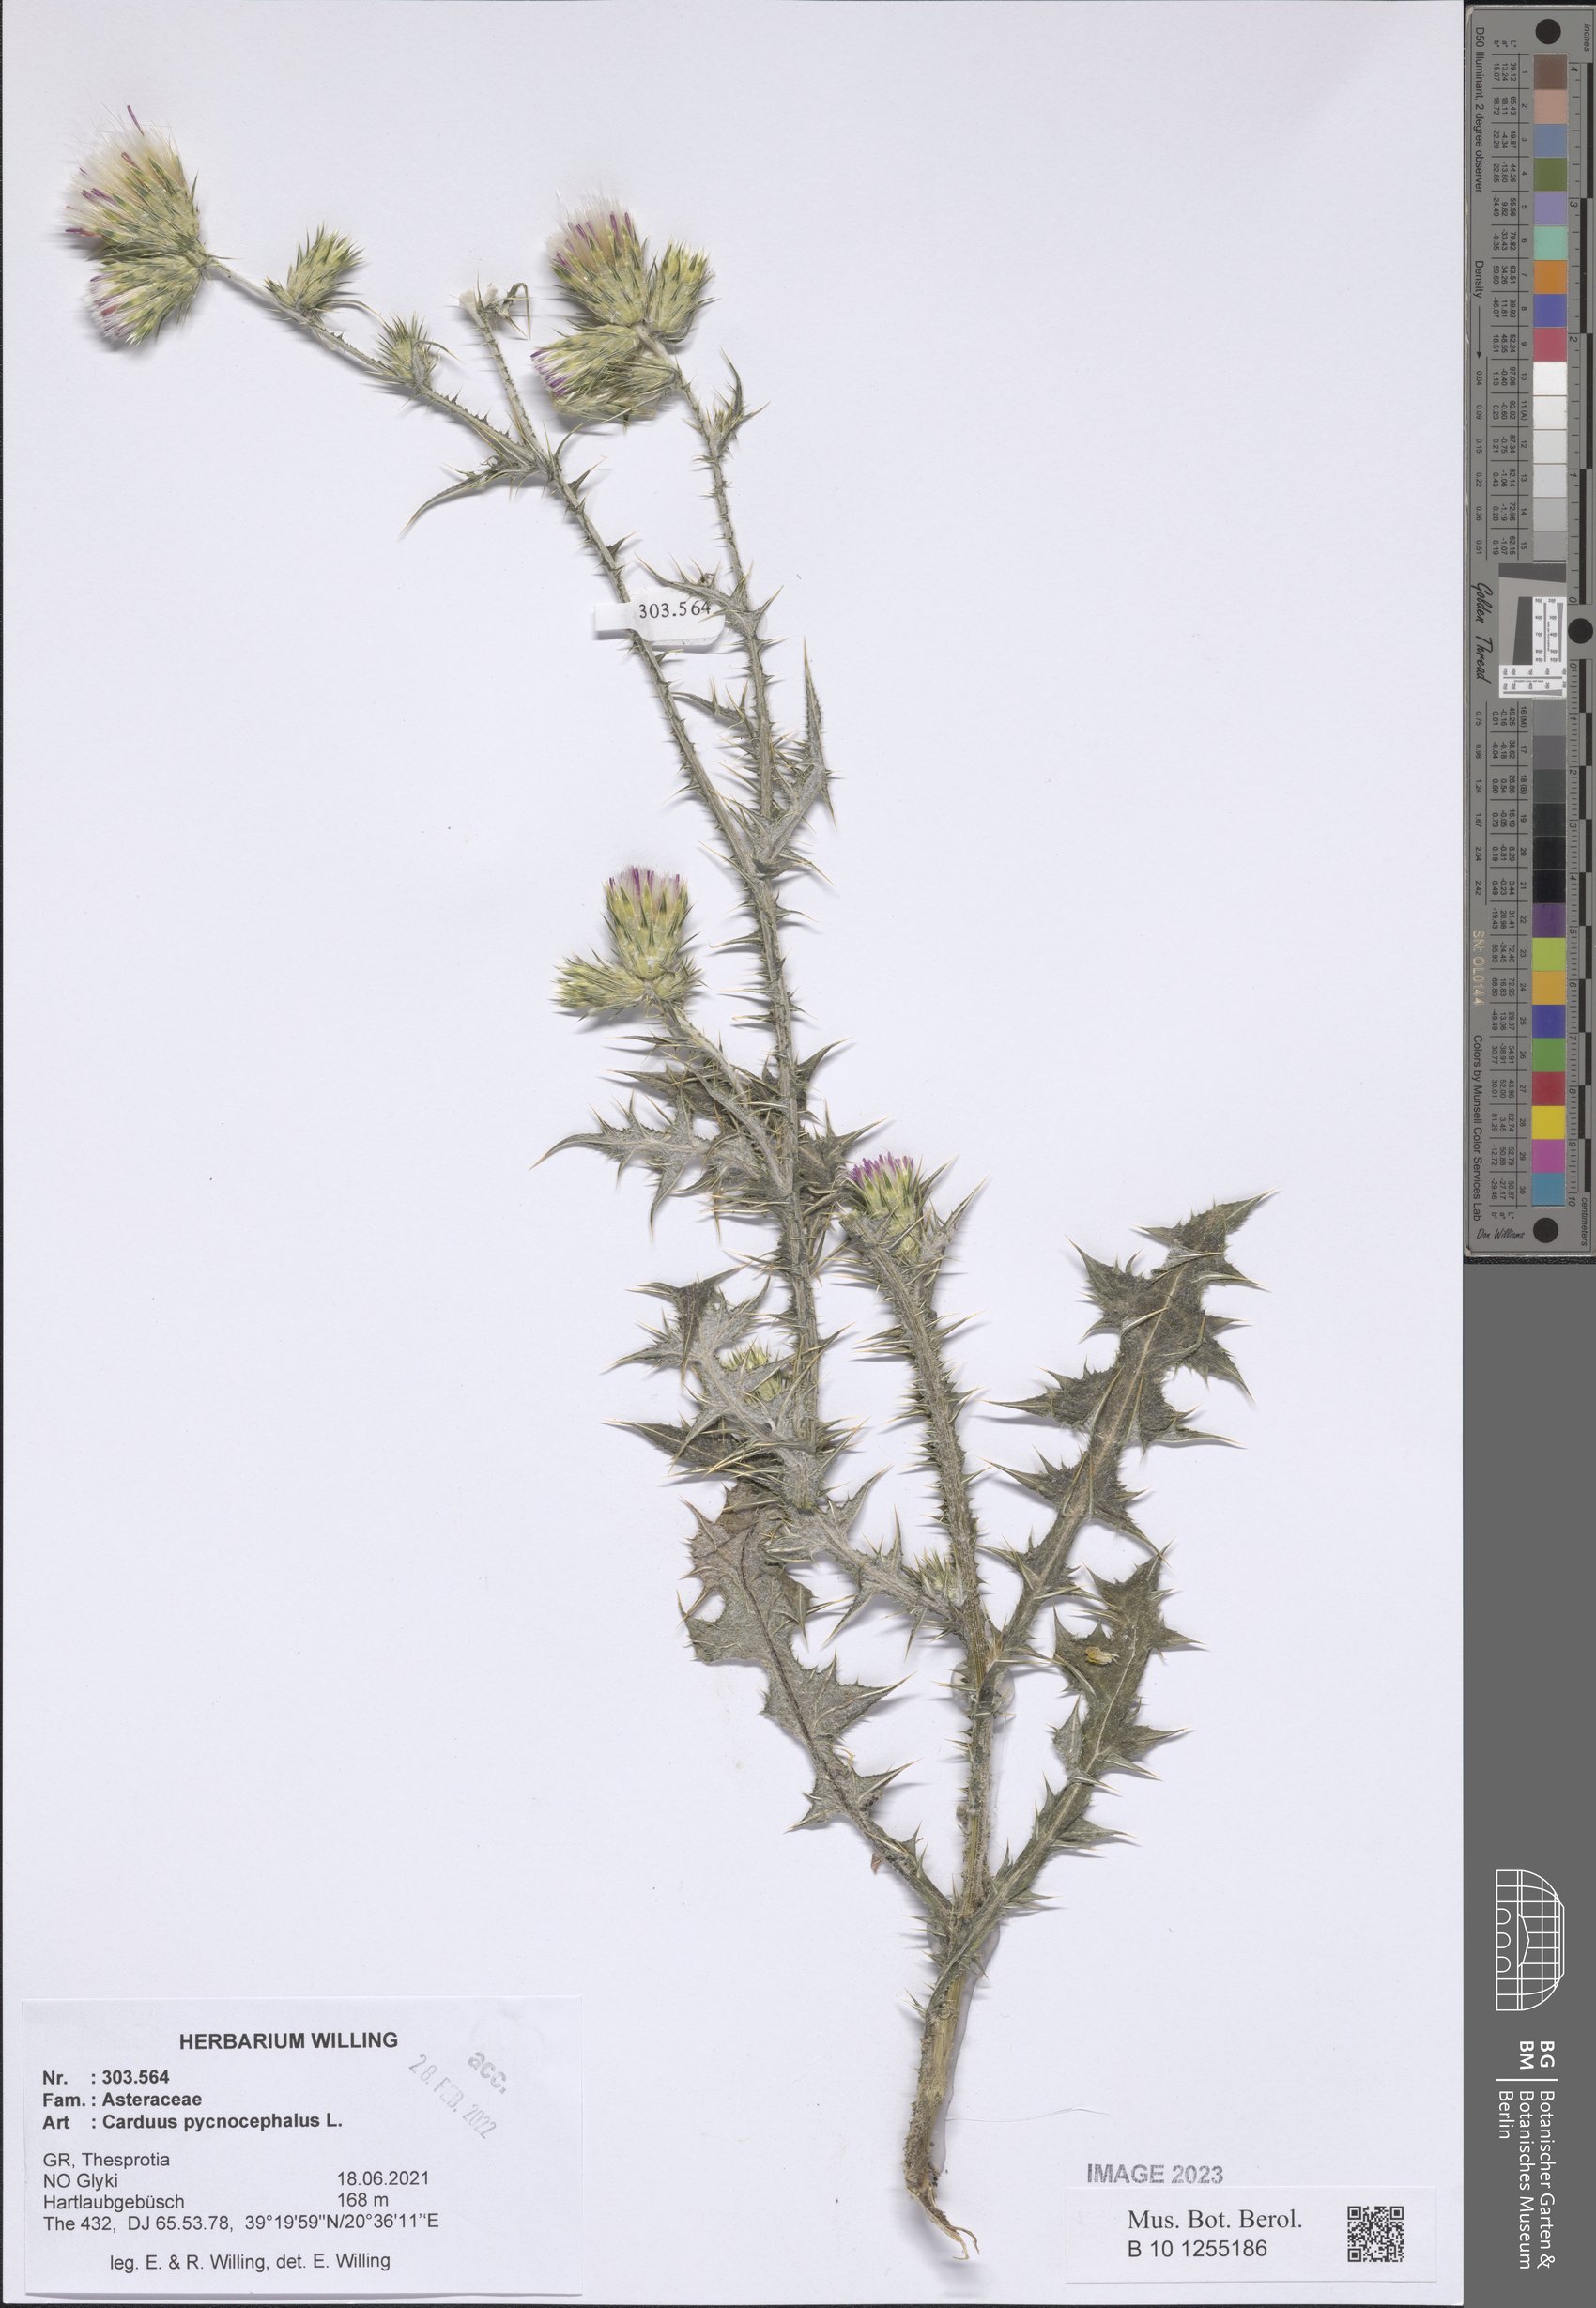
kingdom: Plantae
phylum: Tracheophyta
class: Magnoliopsida
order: Asterales
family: Asteraceae
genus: Carduus
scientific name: Carduus pycnocephalus
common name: Plymouth thistle
